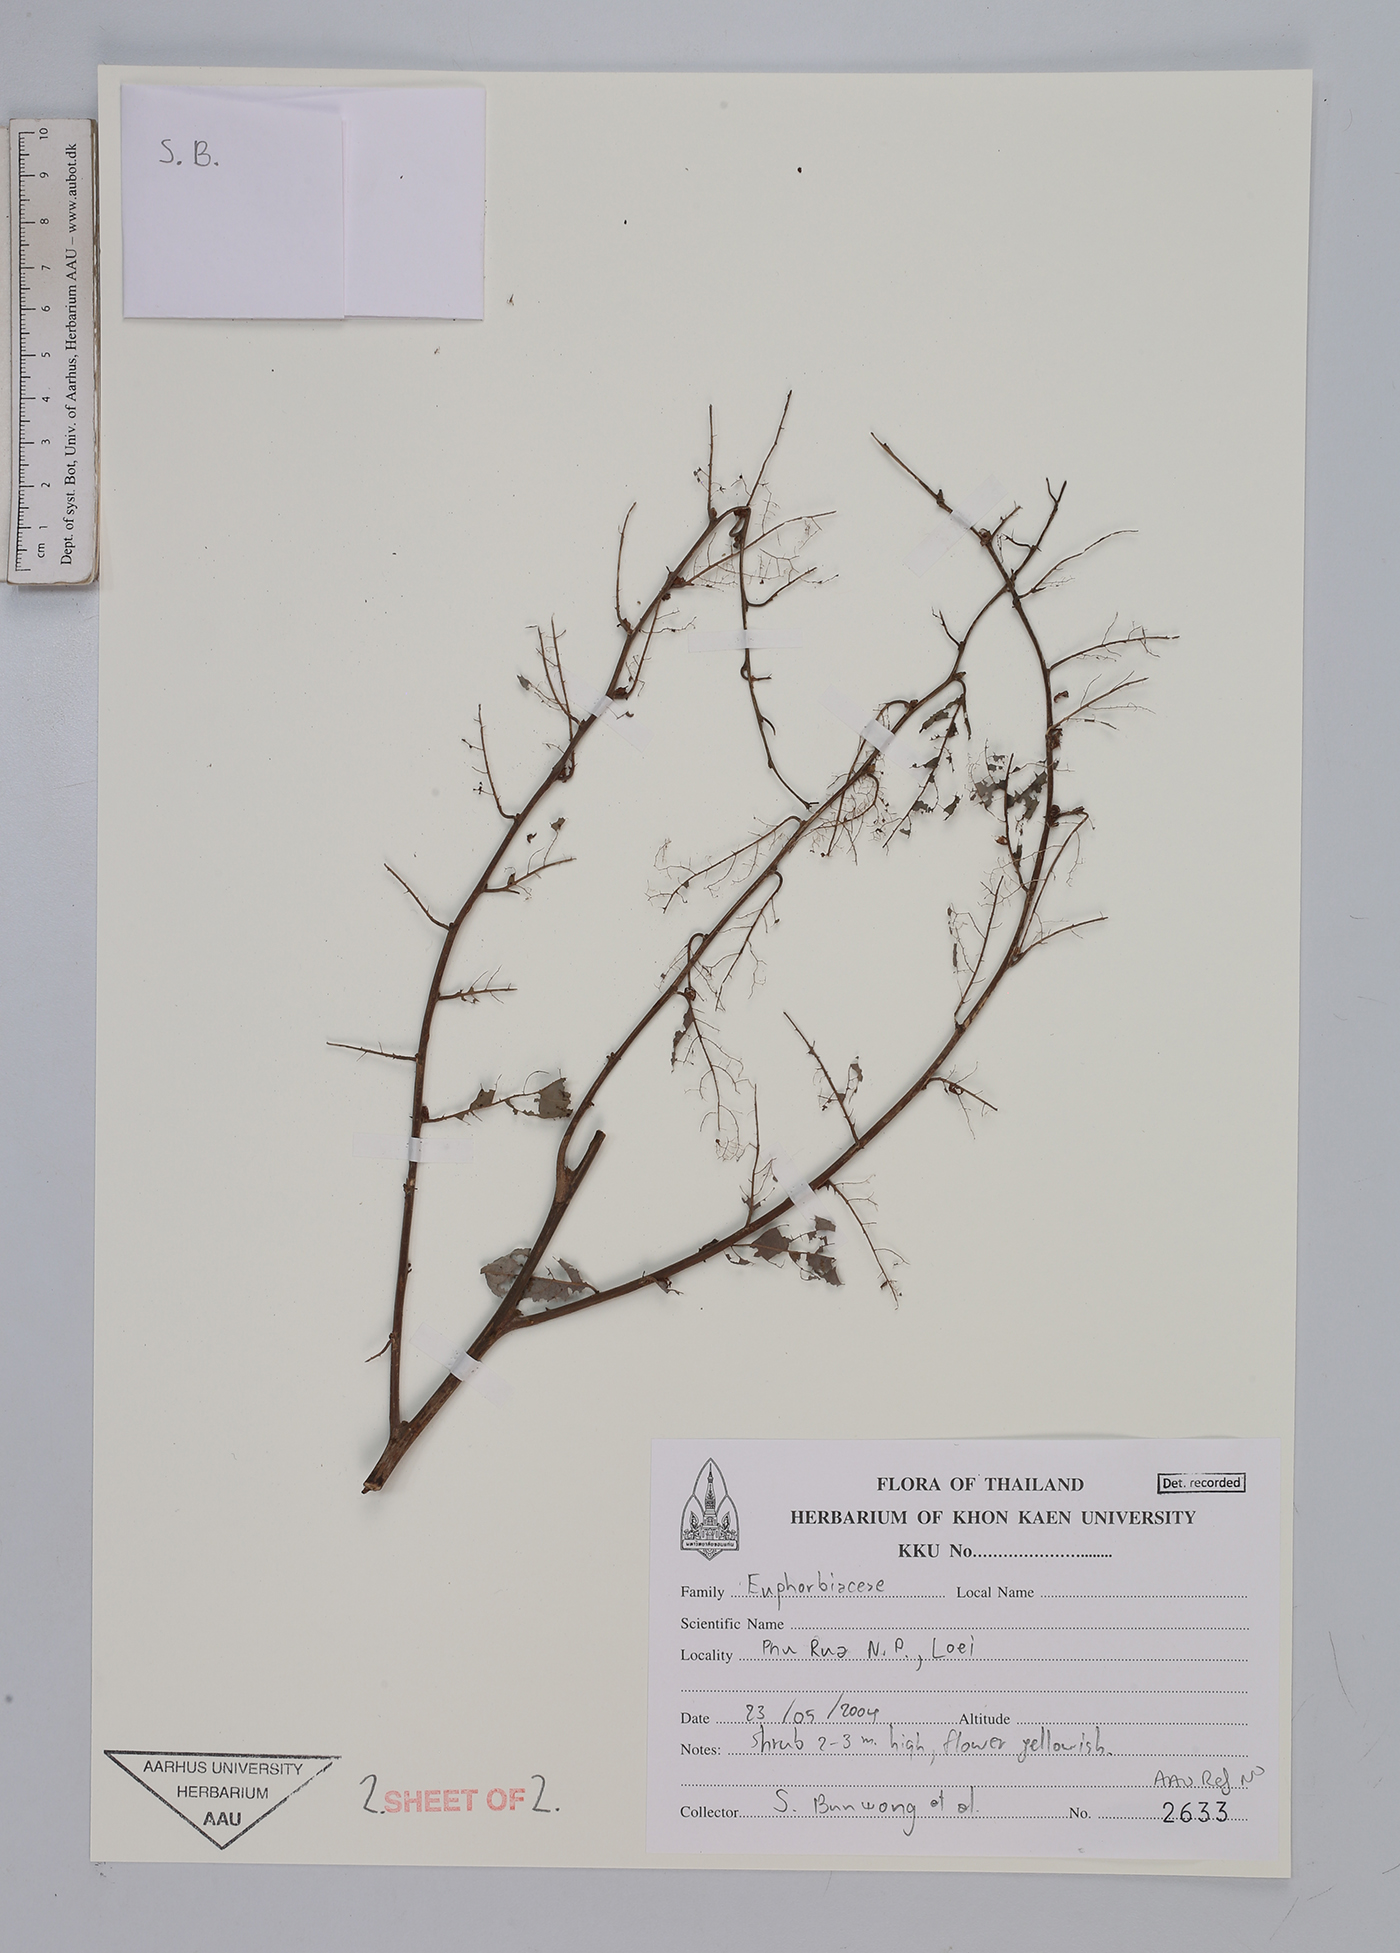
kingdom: Plantae
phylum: Tracheophyta
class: Magnoliopsida
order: Malpighiales
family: Euphorbiaceae
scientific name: Euphorbiaceae
